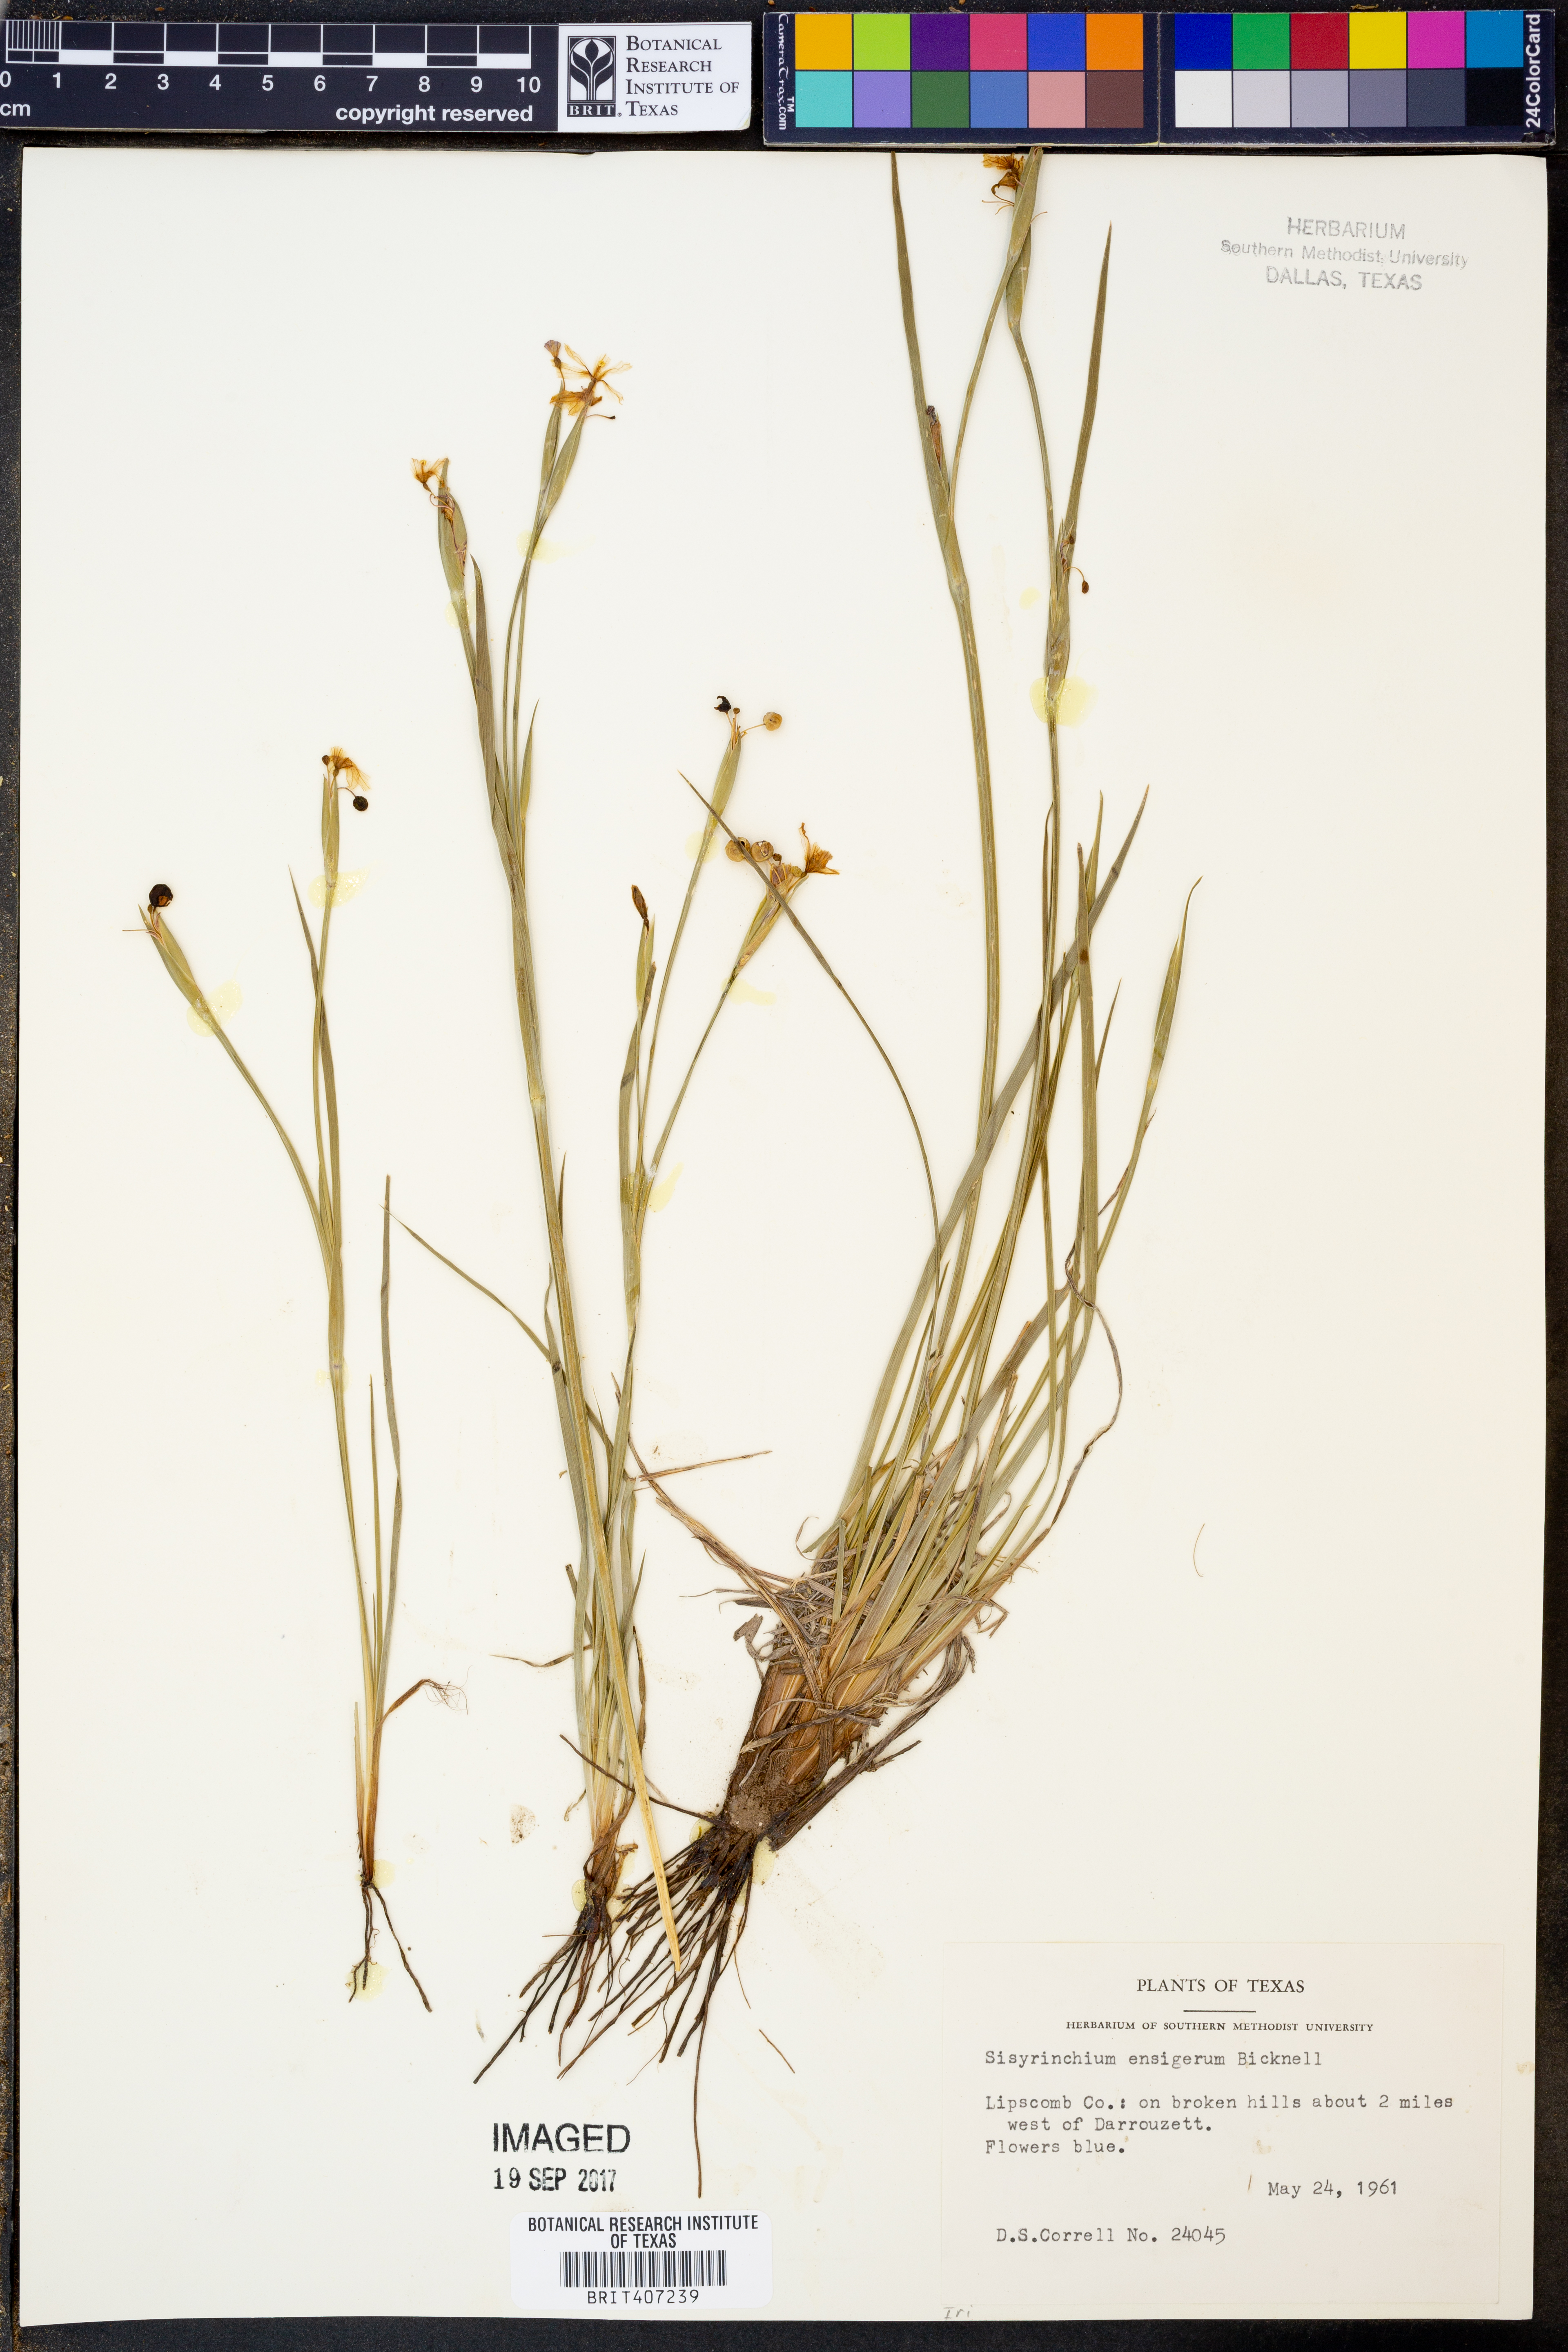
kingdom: Plantae
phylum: Tracheophyta
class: Liliopsida
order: Asparagales
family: Iridaceae
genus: Sisyrinchium
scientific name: Sisyrinchium ensigerum
